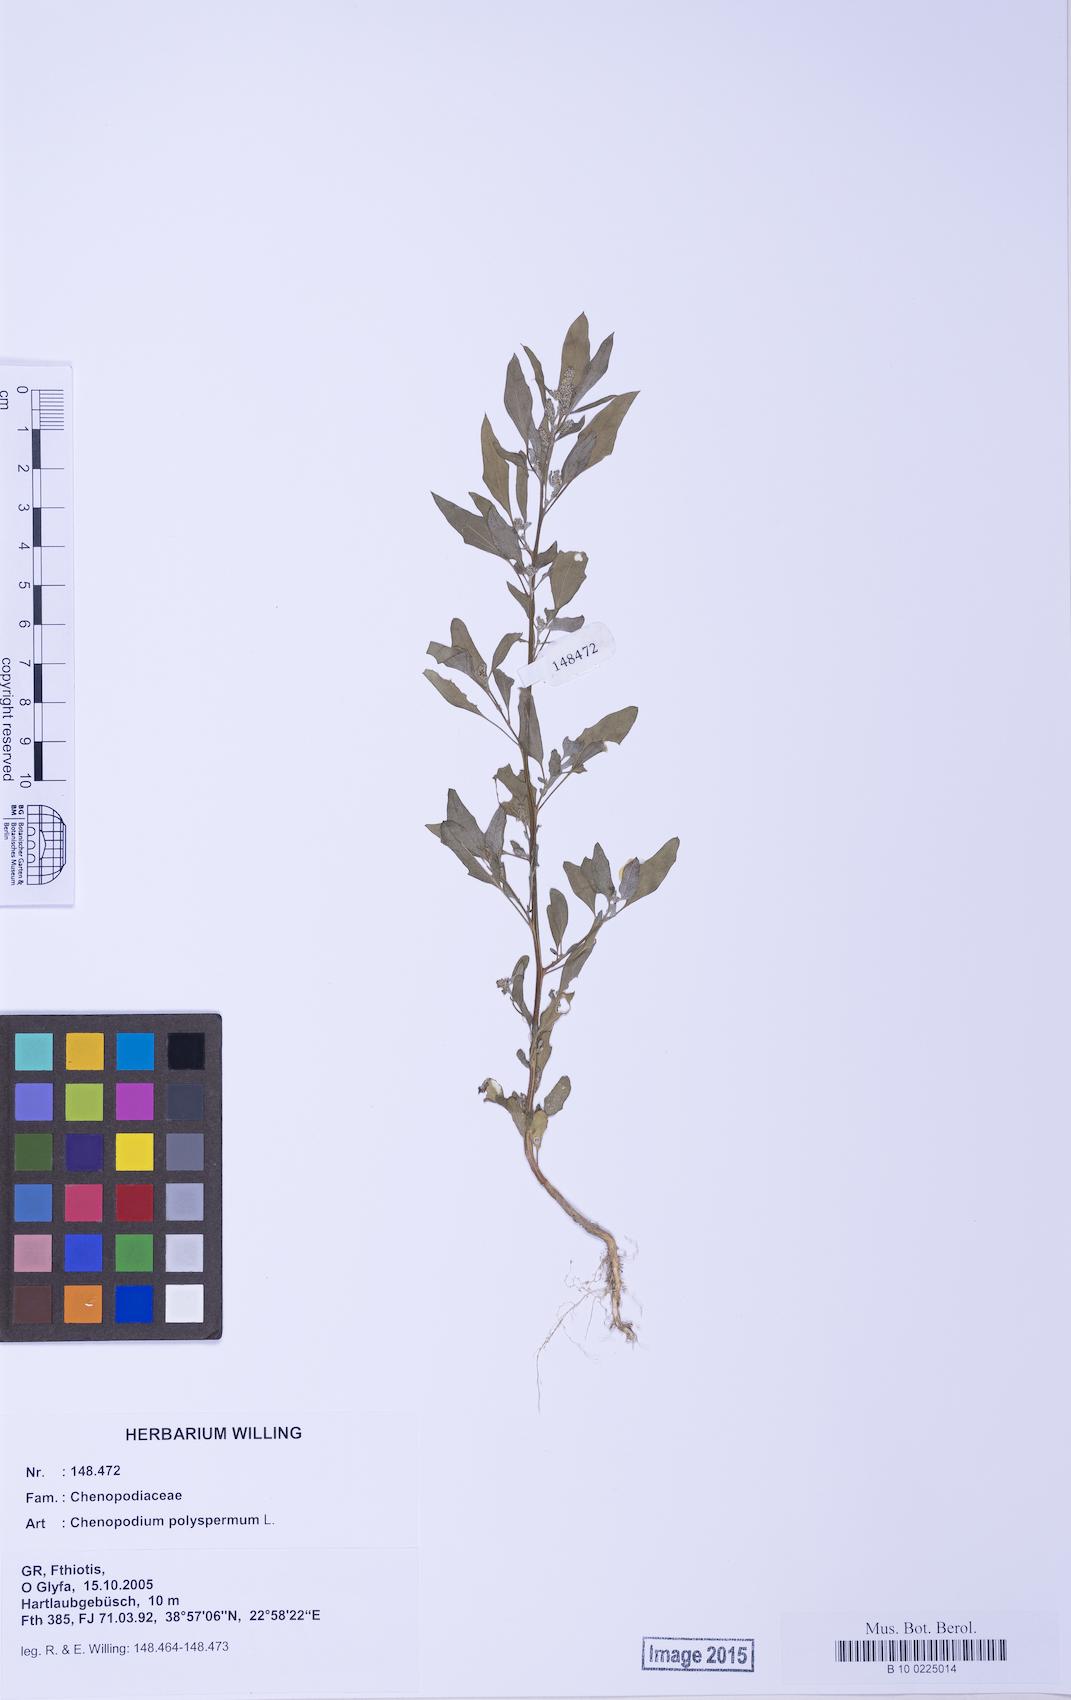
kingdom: Plantae
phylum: Tracheophyta
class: Magnoliopsida
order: Caryophyllales
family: Amaranthaceae
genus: Chenopodium
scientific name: Chenopodium album
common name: Fat-hen
